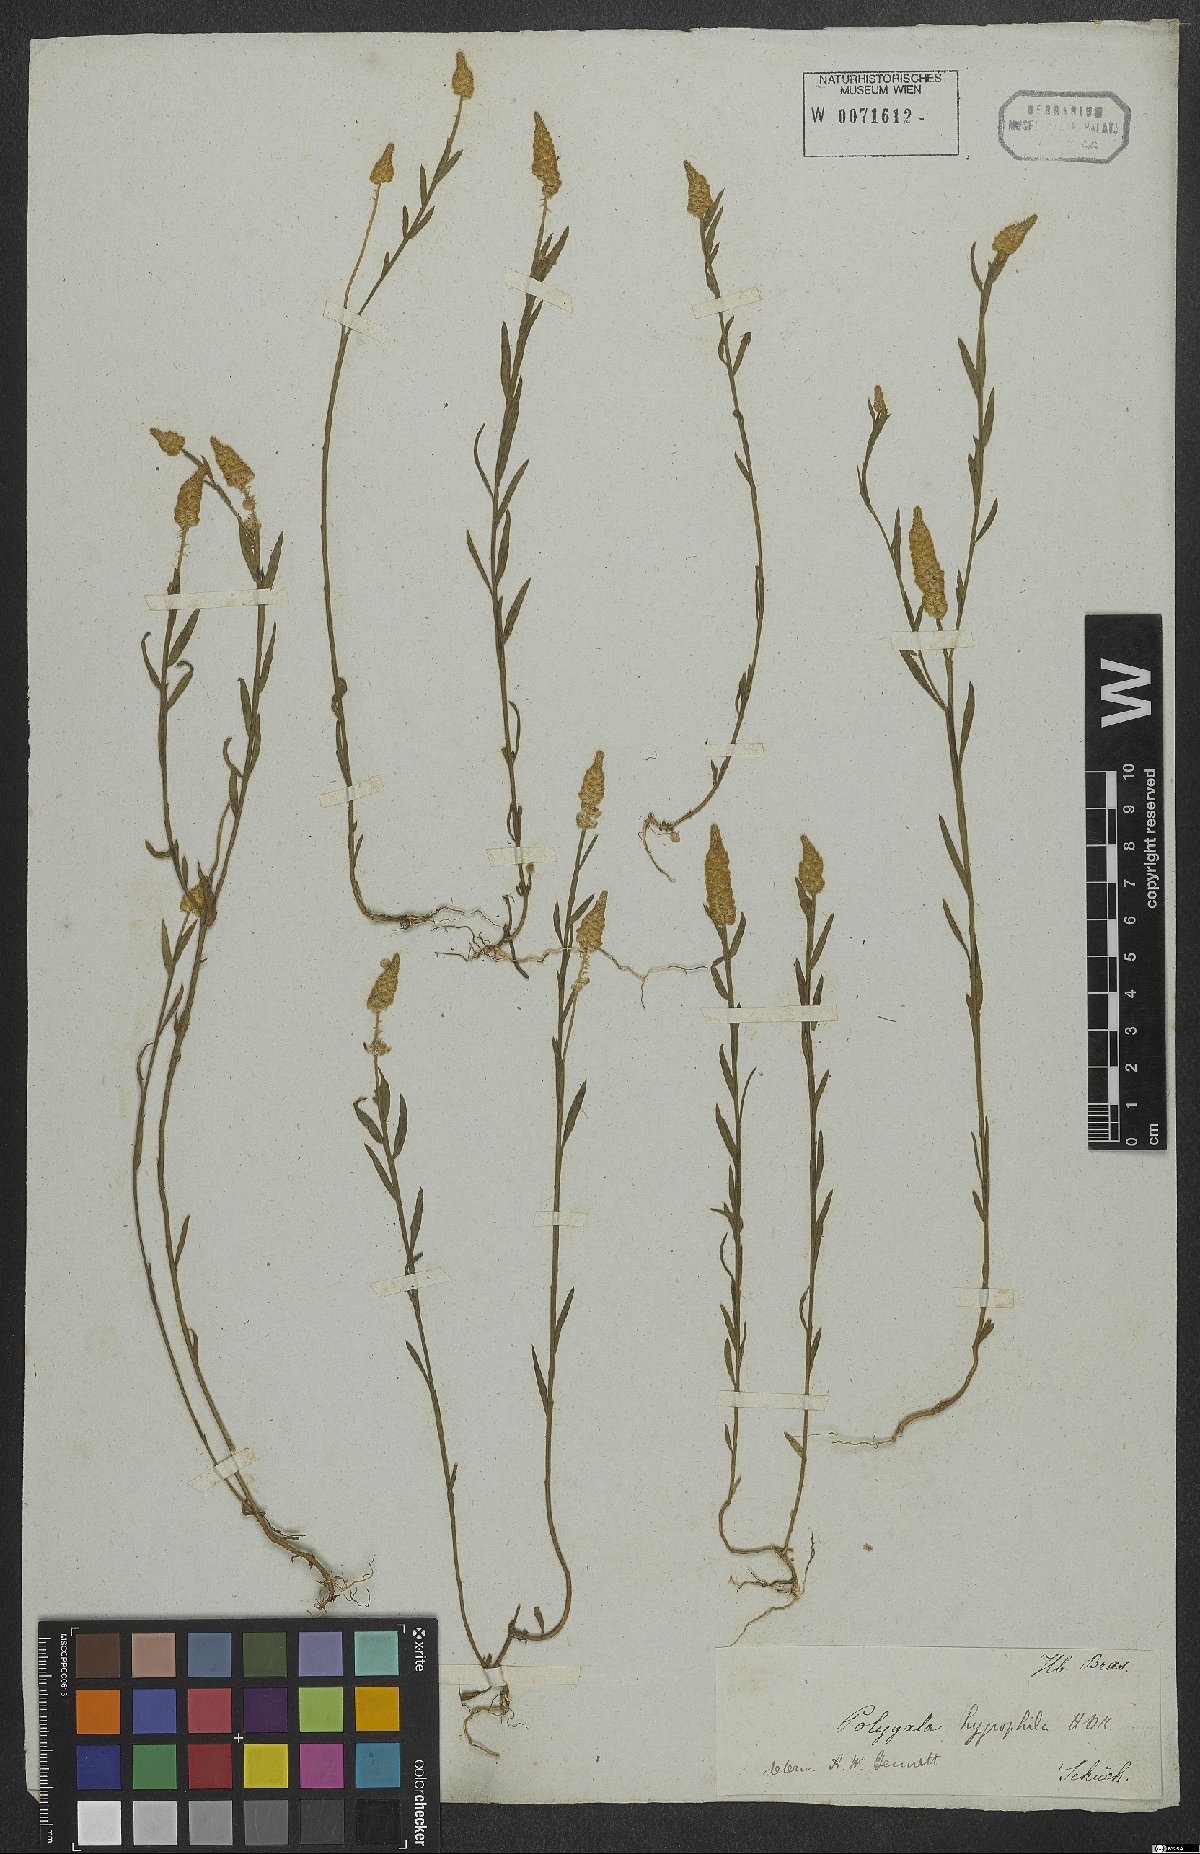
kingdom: Plantae
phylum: Tracheophyta
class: Magnoliopsida
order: Fabales
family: Polygalaceae
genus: Polygala
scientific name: Polygala hygrophila
